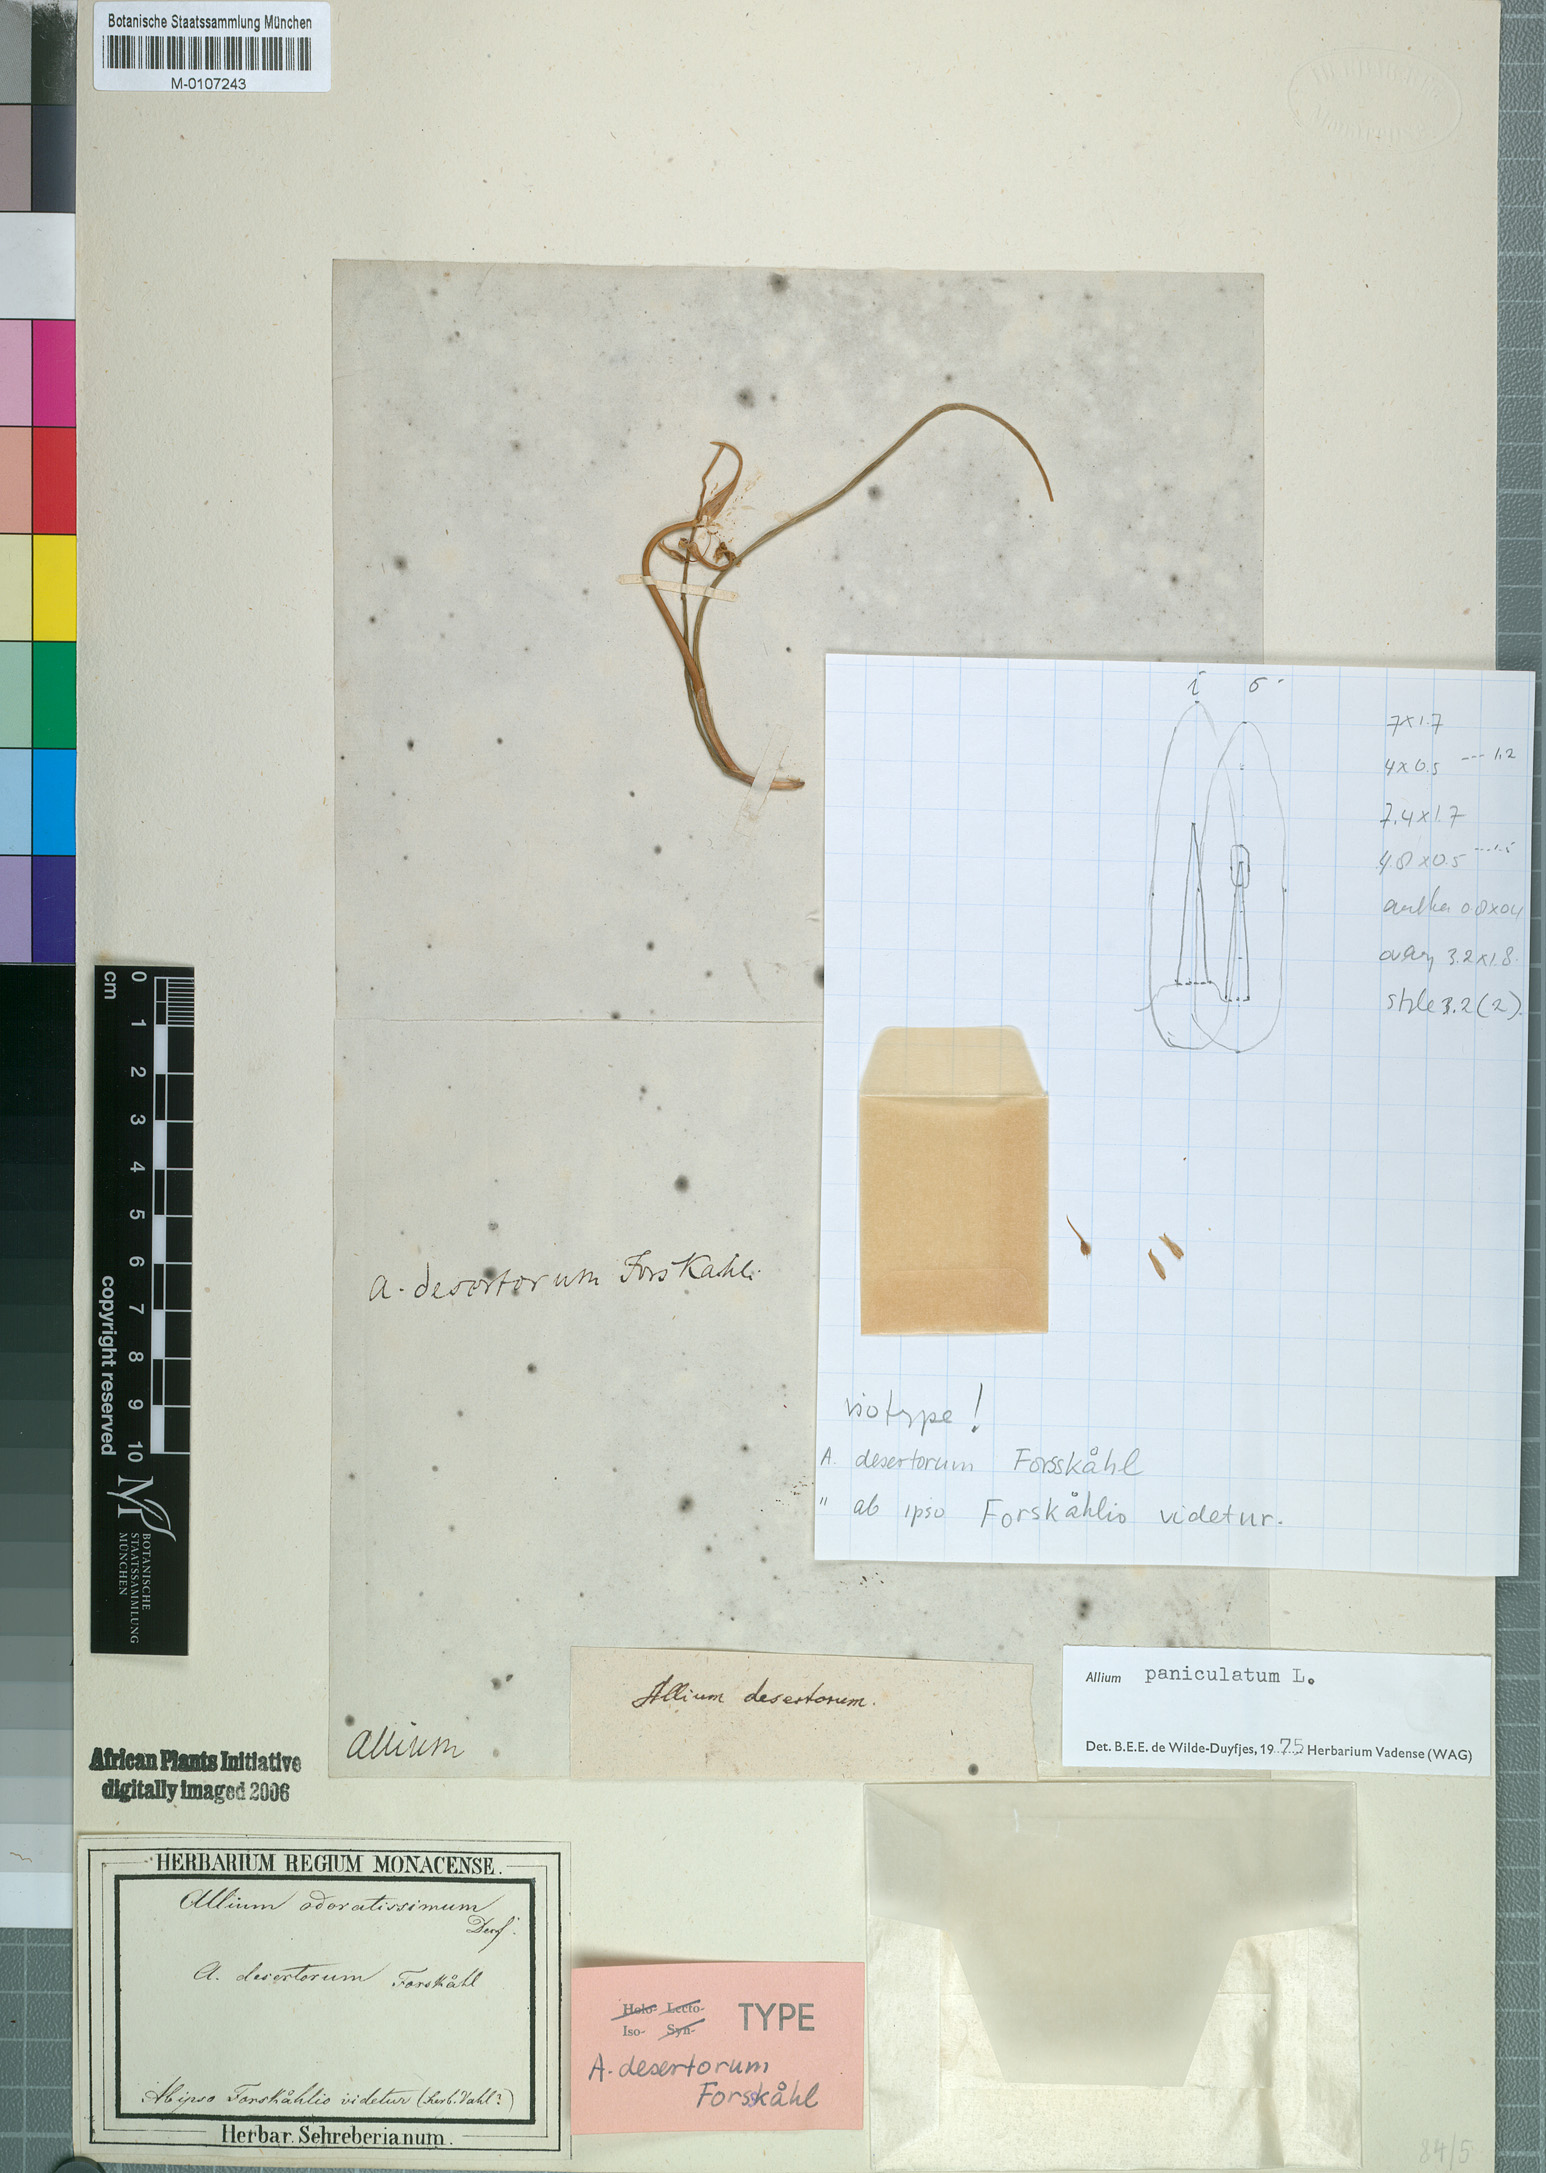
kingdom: Plantae
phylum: Tracheophyta
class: Liliopsida
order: Asparagales
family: Amaryllidaceae
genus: Allium
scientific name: Allium paniculatum
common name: Pale garlic
